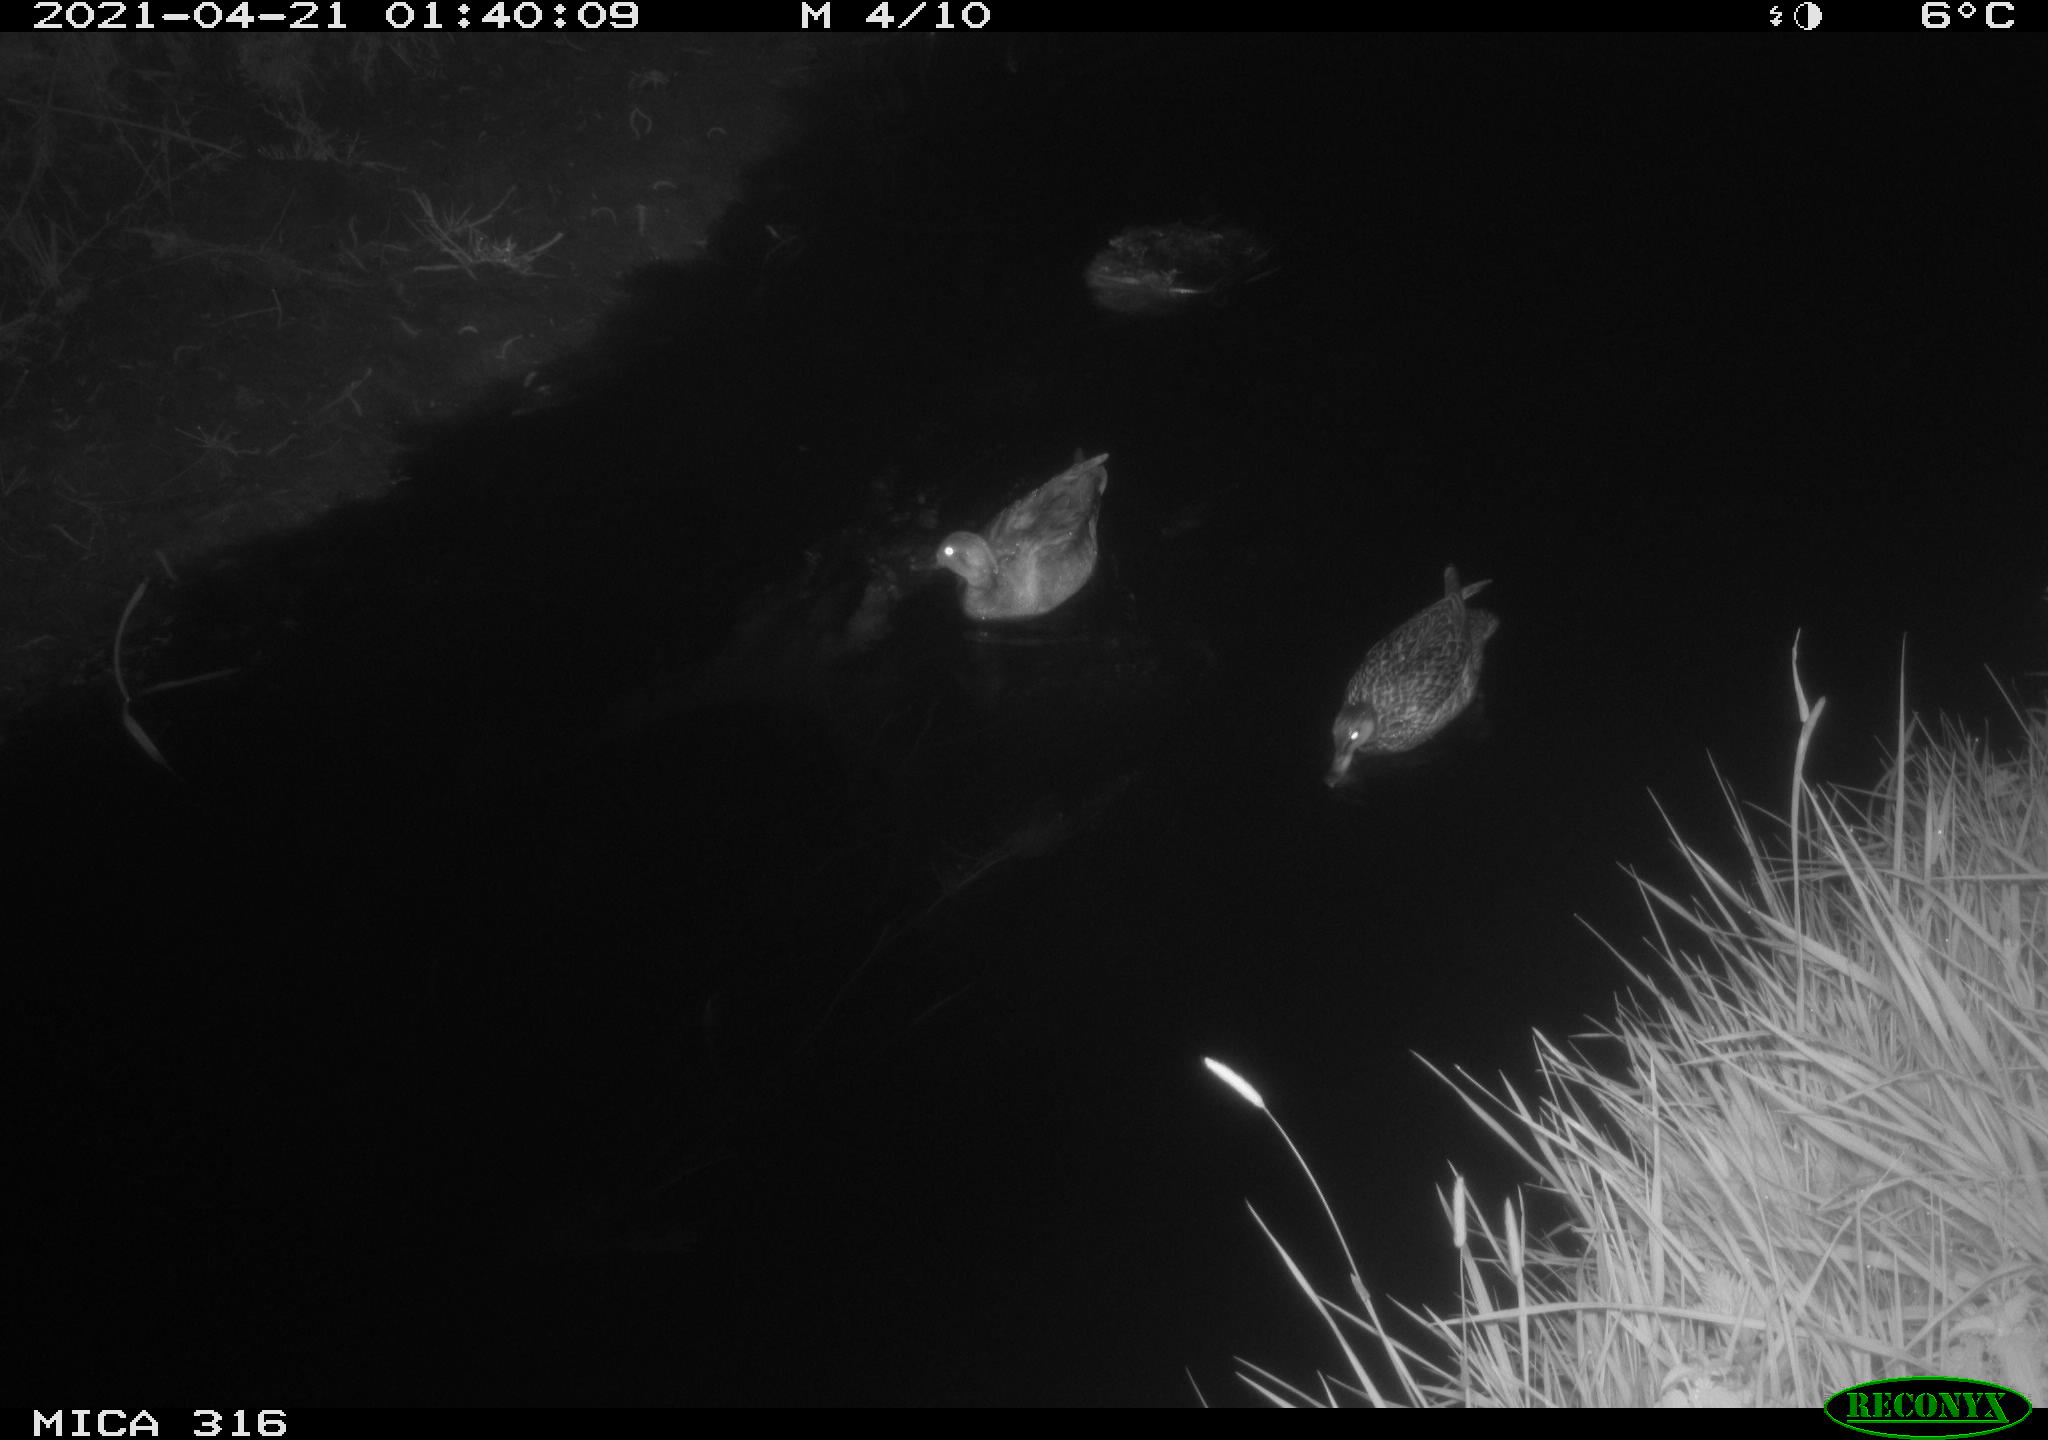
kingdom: Animalia
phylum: Chordata
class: Aves
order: Anseriformes
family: Anatidae
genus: Mareca
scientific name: Mareca strepera
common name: Gadwall
